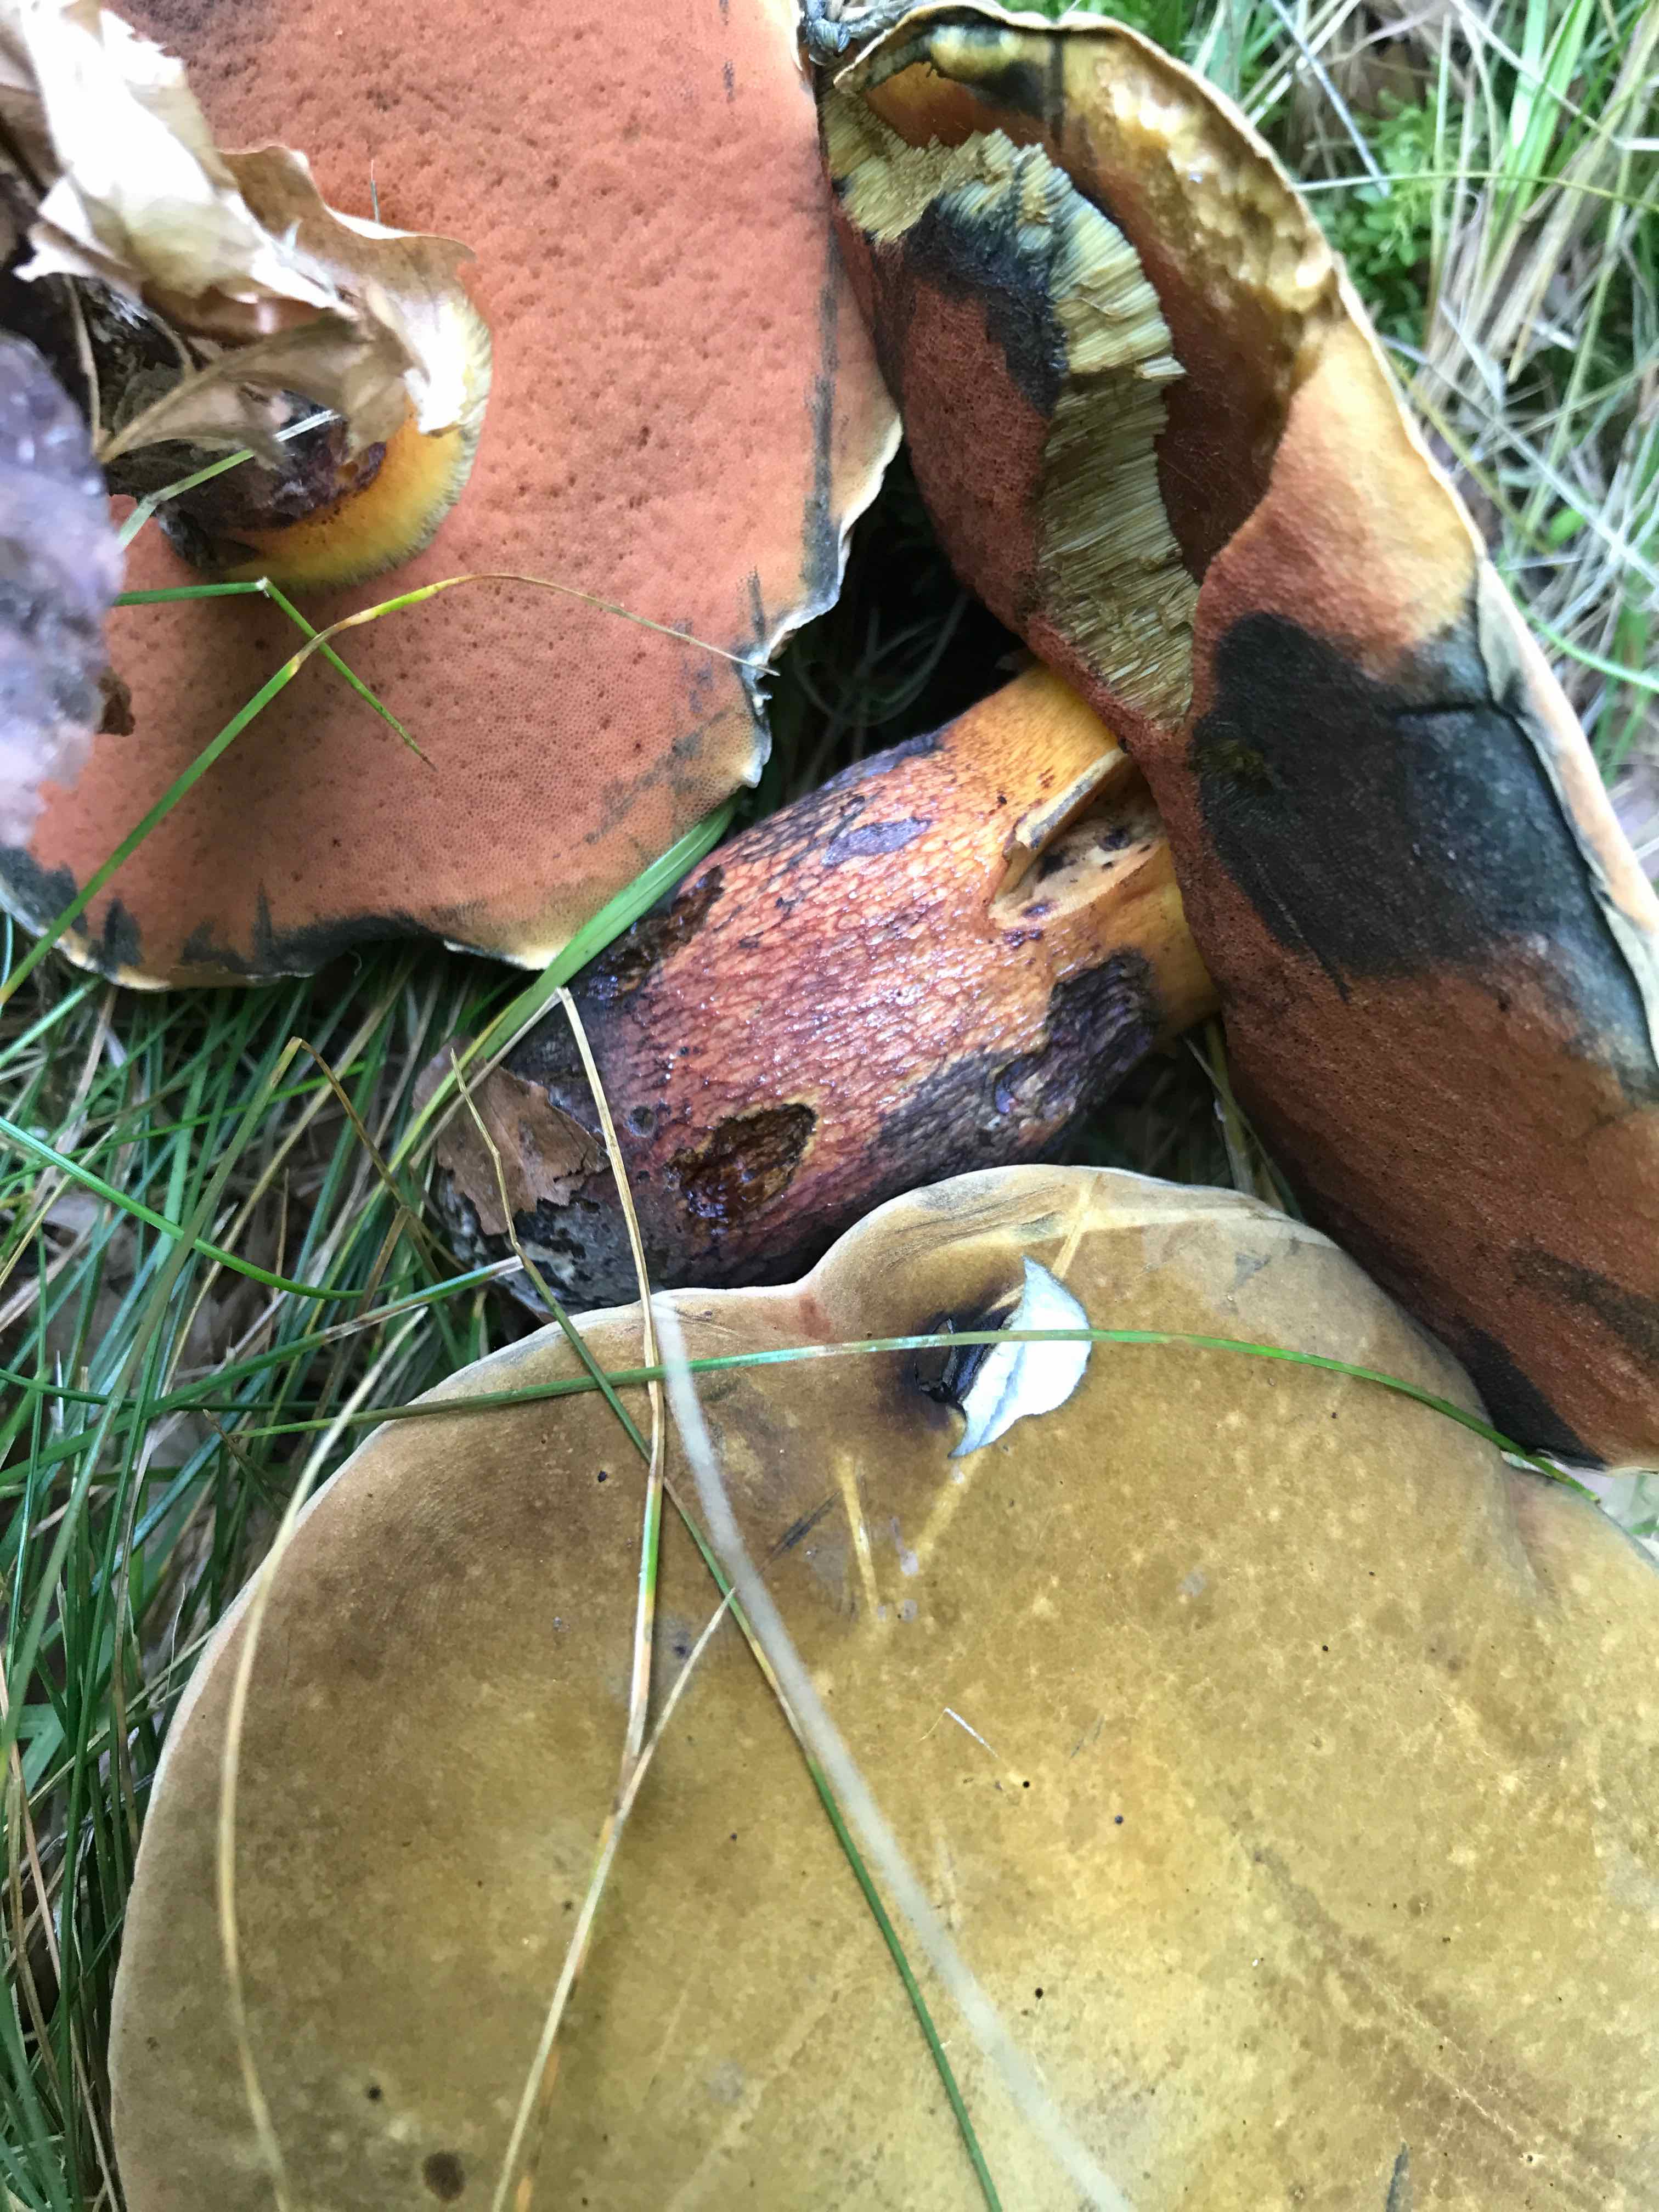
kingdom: Fungi
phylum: Basidiomycota
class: Agaricomycetes
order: Boletales
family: Boletaceae
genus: Suillellus
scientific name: Suillellus luridus
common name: netstokket indigorørhat
